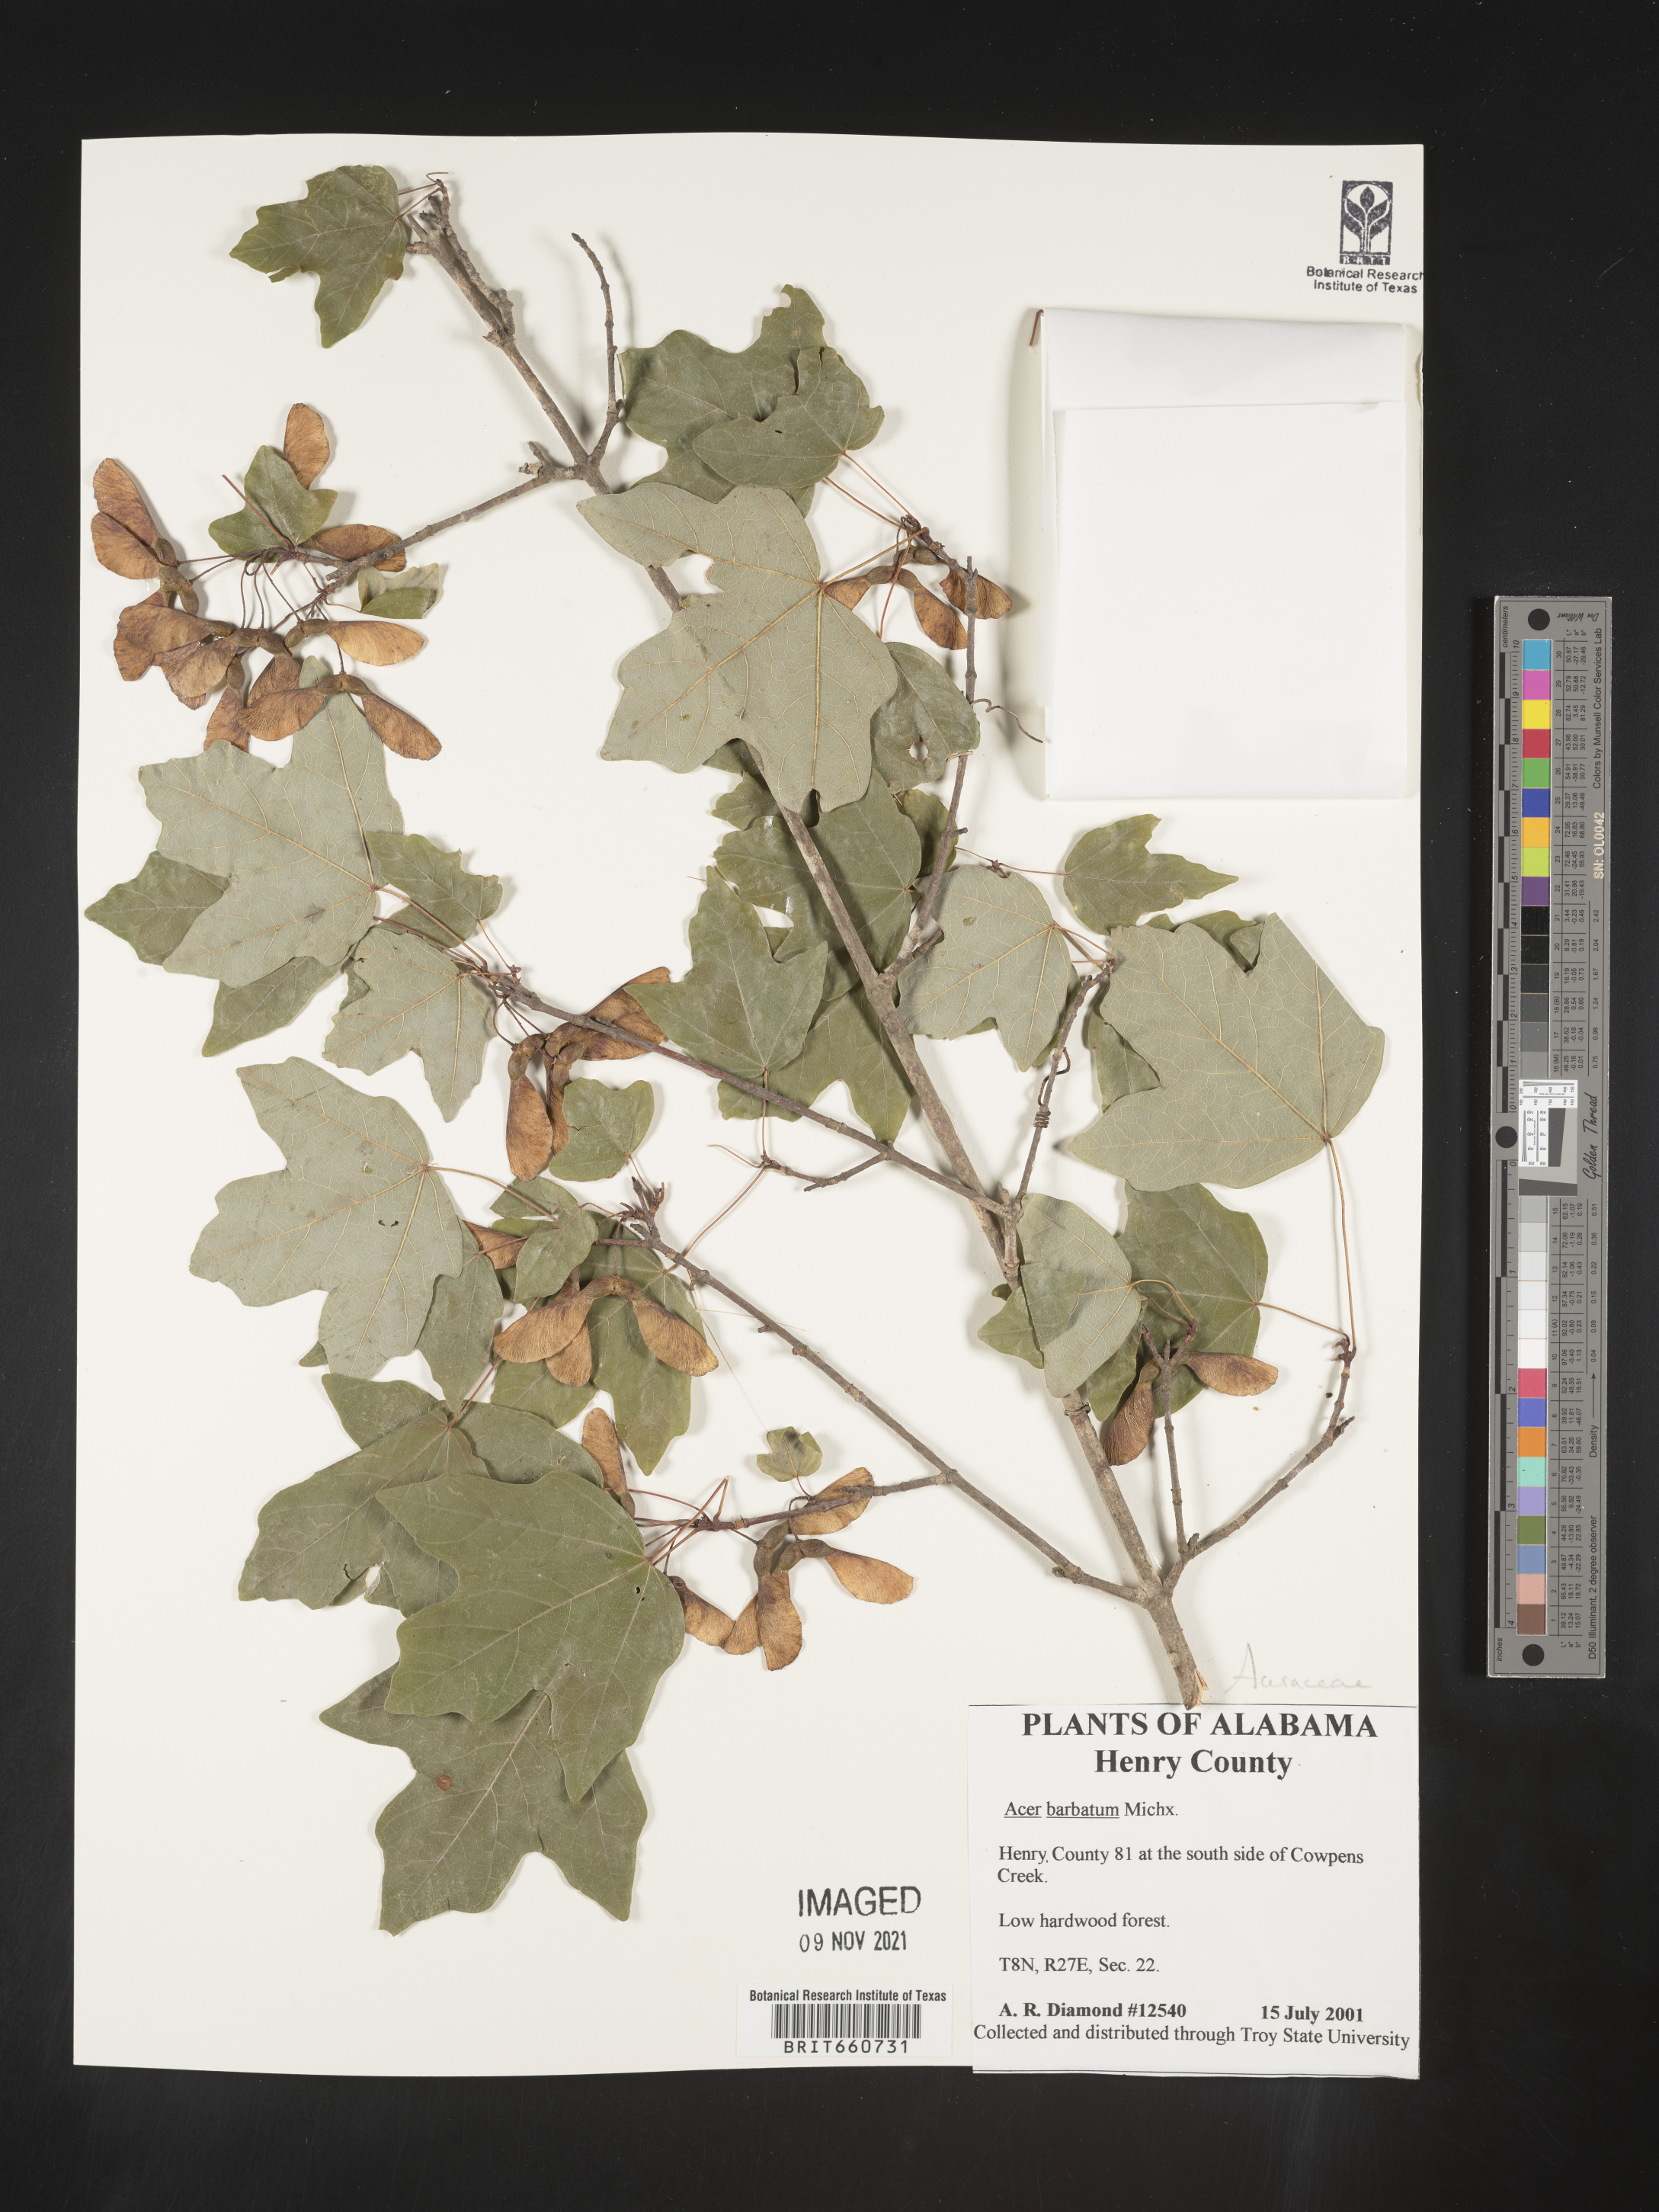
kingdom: Plantae
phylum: Tracheophyta
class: Magnoliopsida
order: Sapindales
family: Sapindaceae
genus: Acer
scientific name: Acer barbatum
